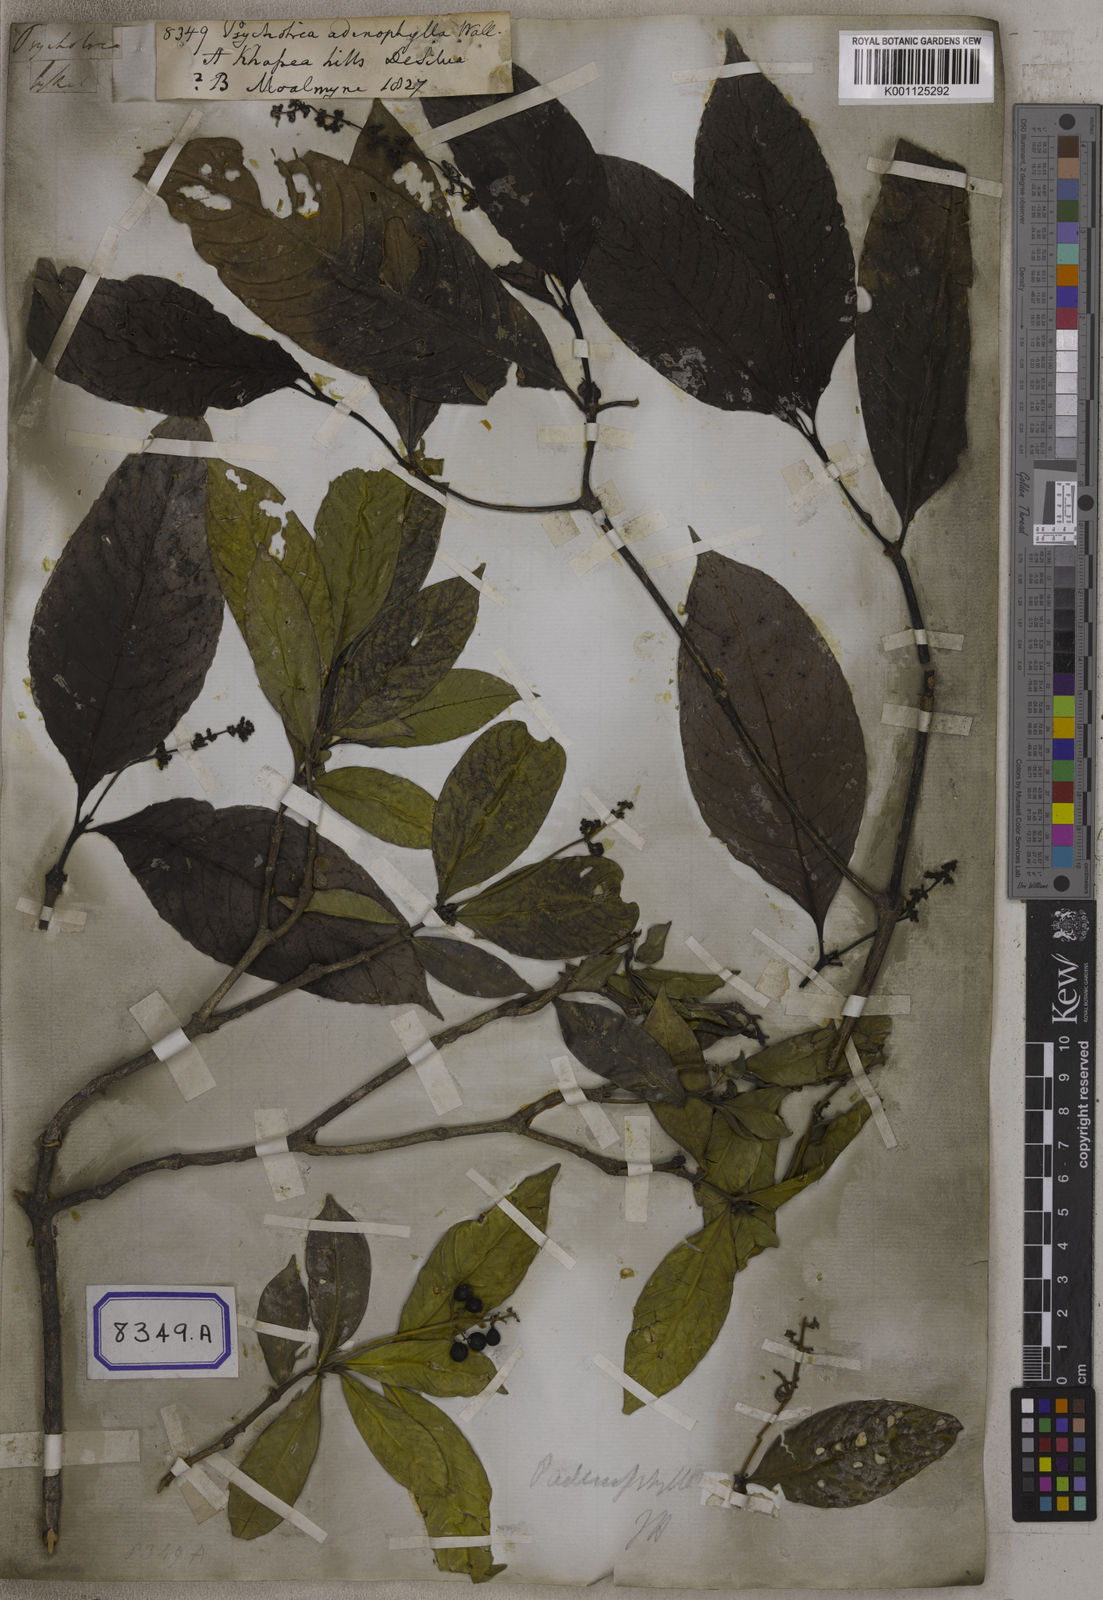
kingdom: Plantae
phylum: Tracheophyta
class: Magnoliopsida
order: Gentianales
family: Rubiaceae
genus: Psychotria
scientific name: Psychotria adenophylla
